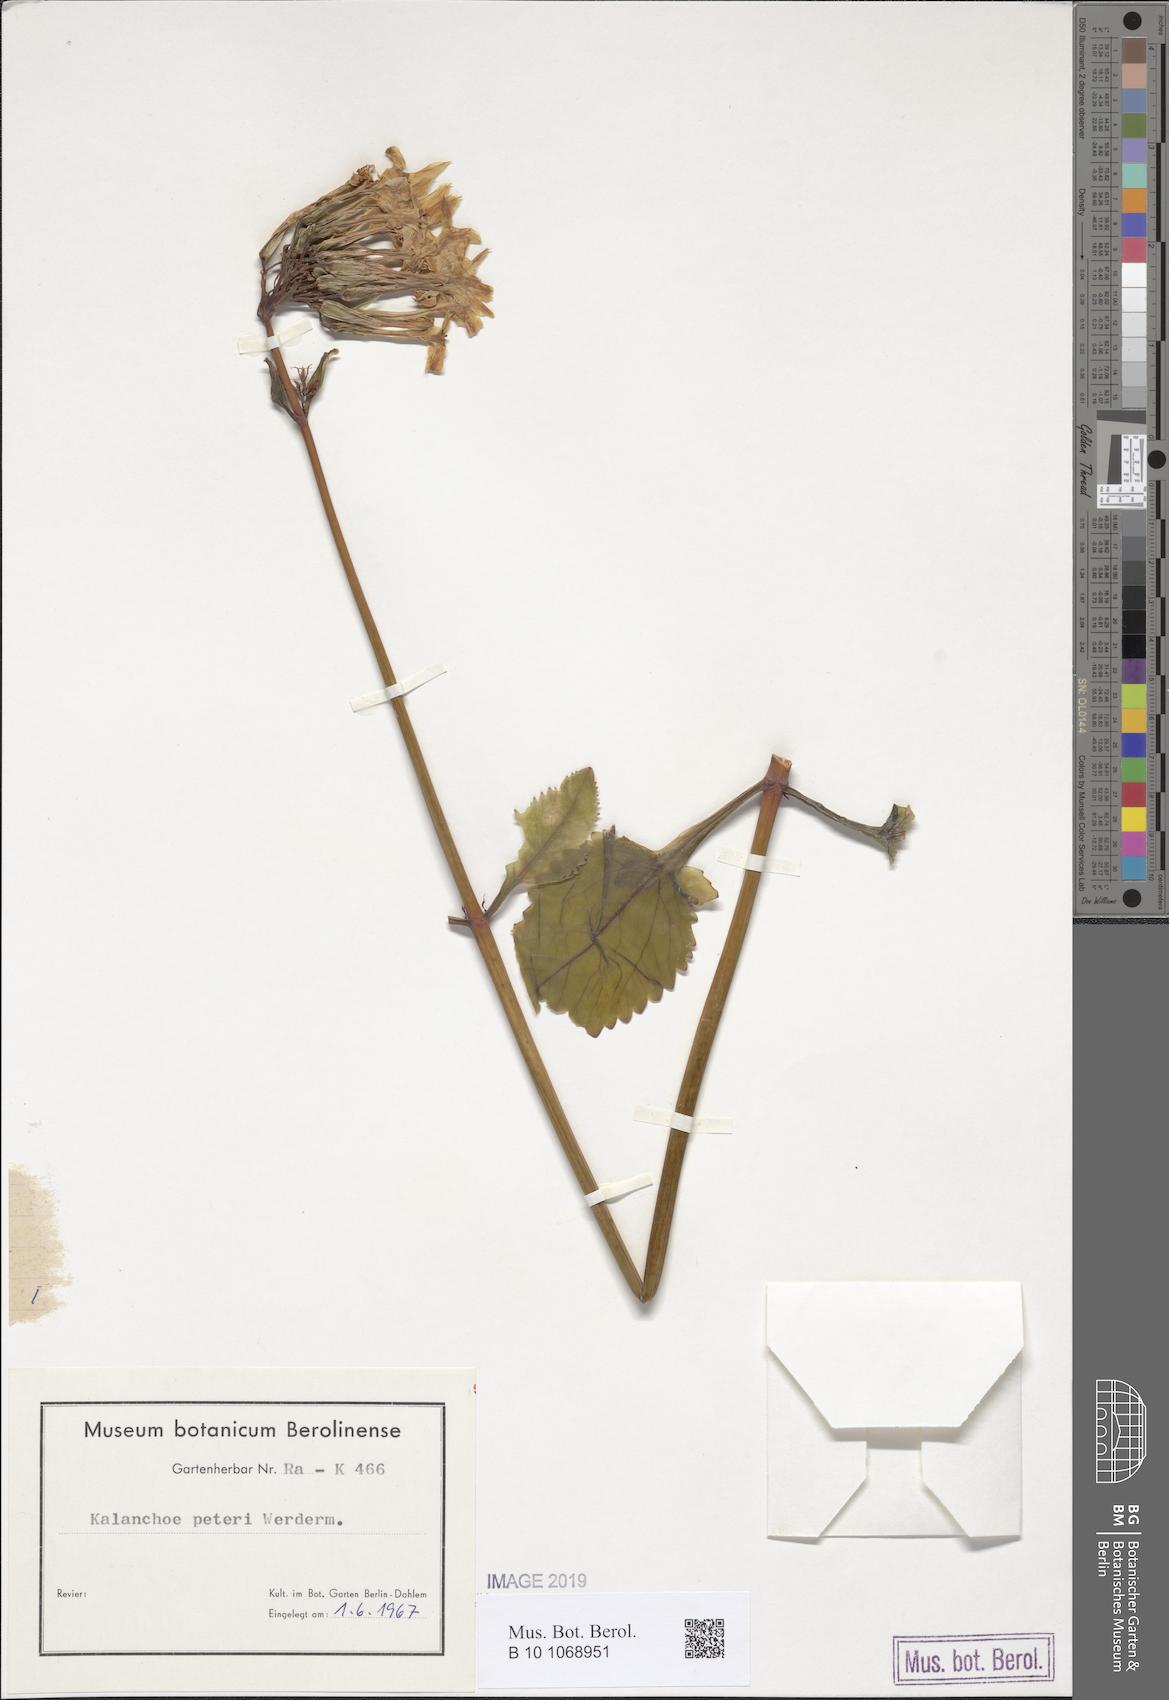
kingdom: Plantae
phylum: Tracheophyta
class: Magnoliopsida
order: Saxifragales
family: Crassulaceae
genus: Kalanchoe
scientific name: Kalanchoe peteri
